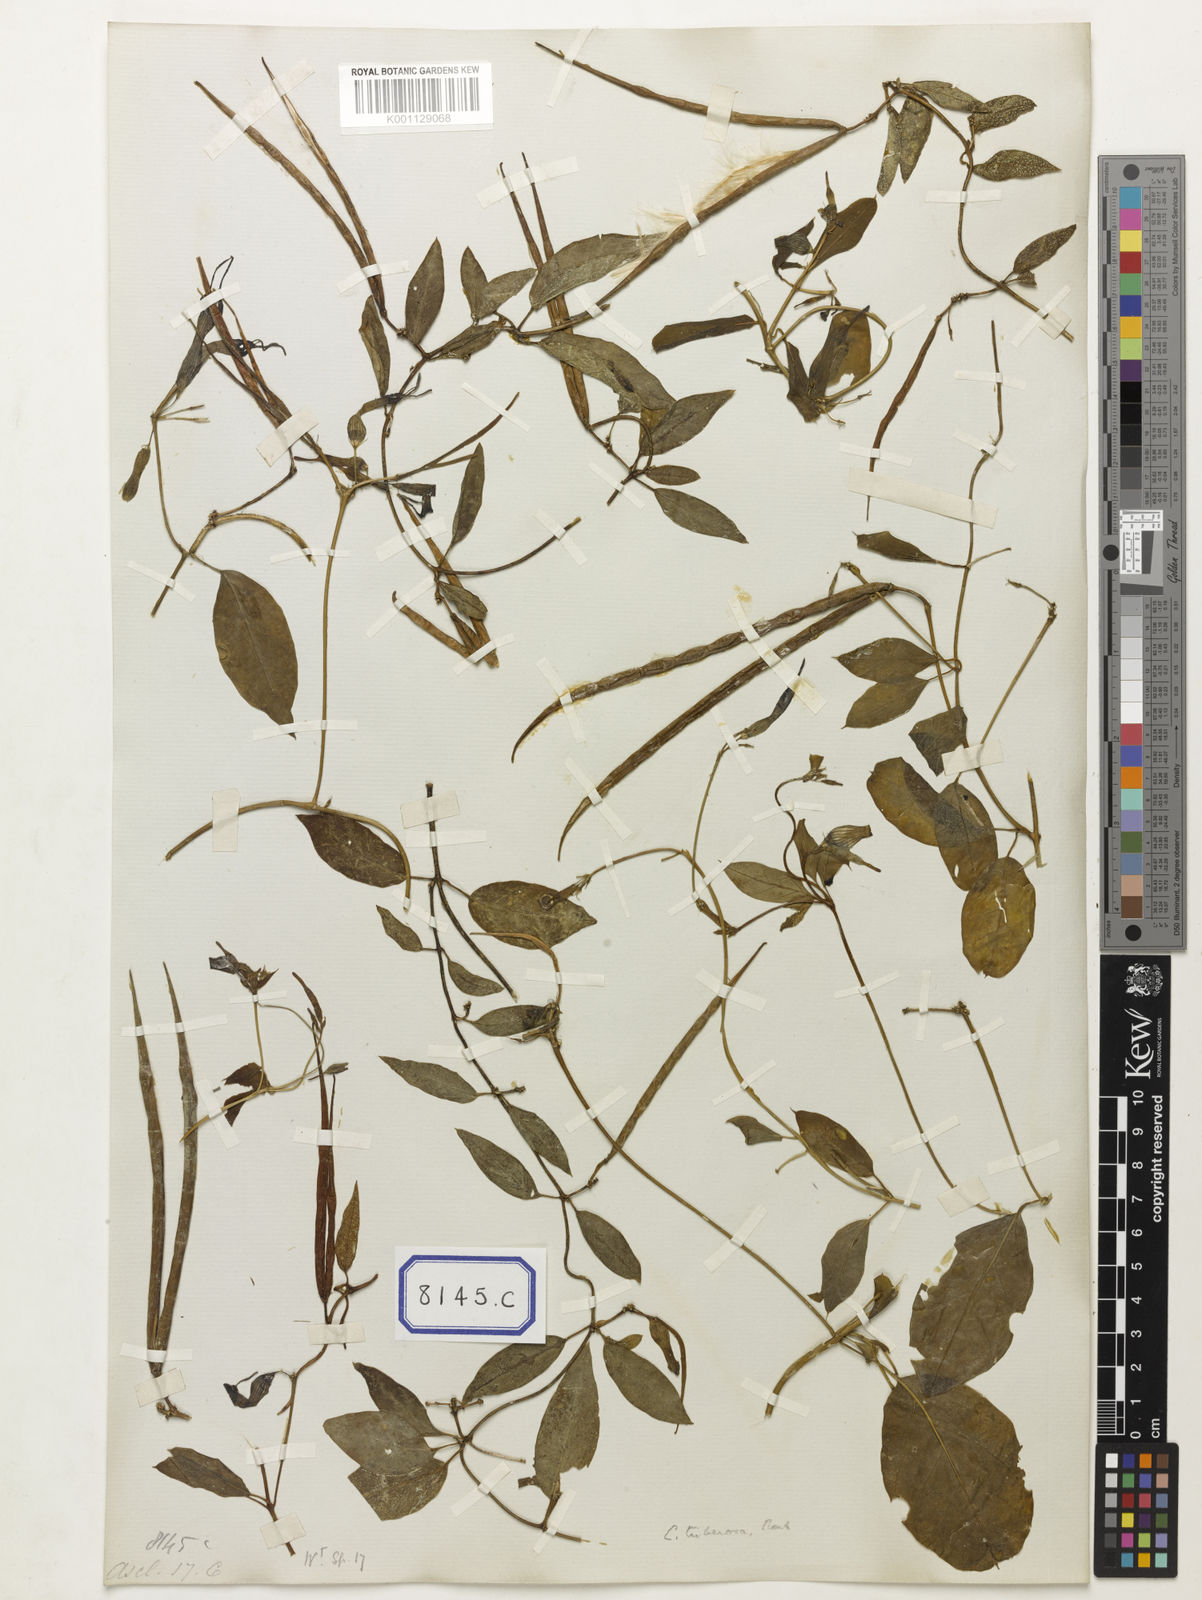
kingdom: Plantae
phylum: Tracheophyta
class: Magnoliopsida
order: Gentianales
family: Apocynaceae
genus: Ceropegia
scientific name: Ceropegia
